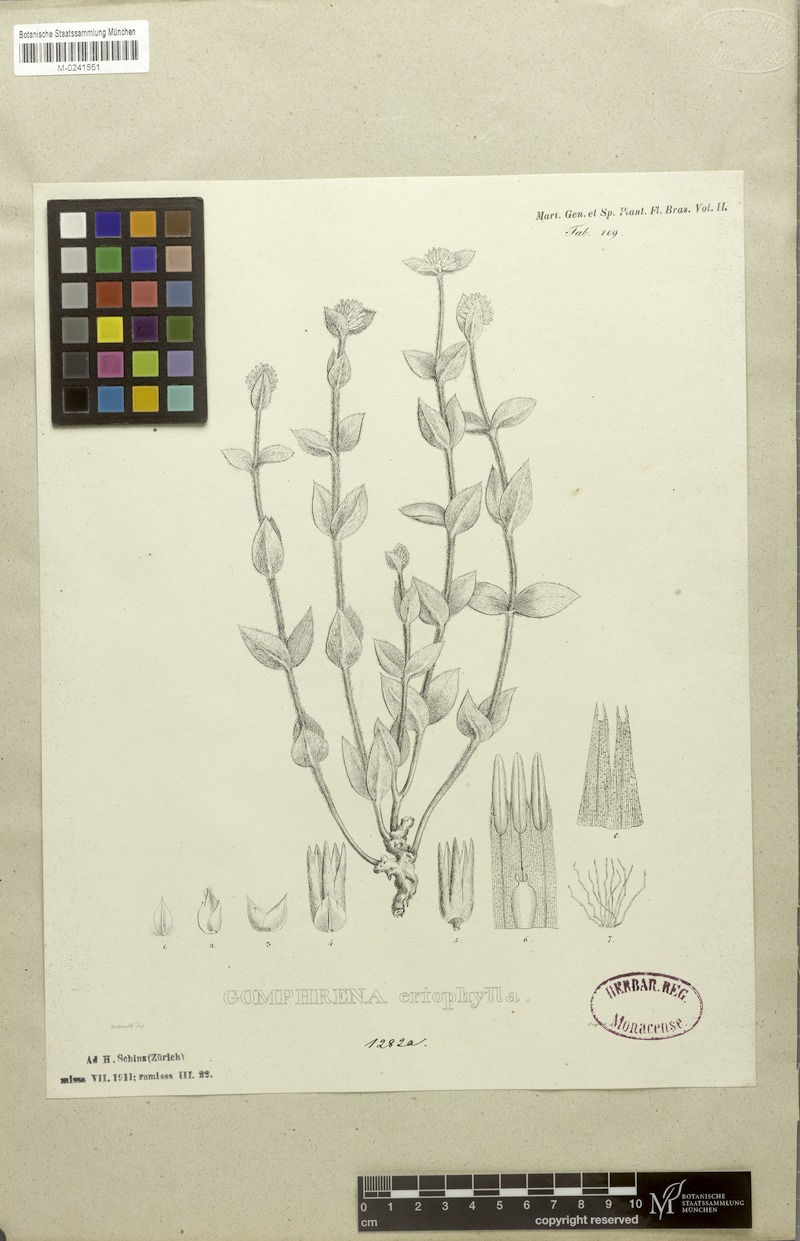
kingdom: Plantae
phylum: Tracheophyta
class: Magnoliopsida
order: Caryophyllales
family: Amaranthaceae
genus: Gomphrena
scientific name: Gomphrena eriophylla
